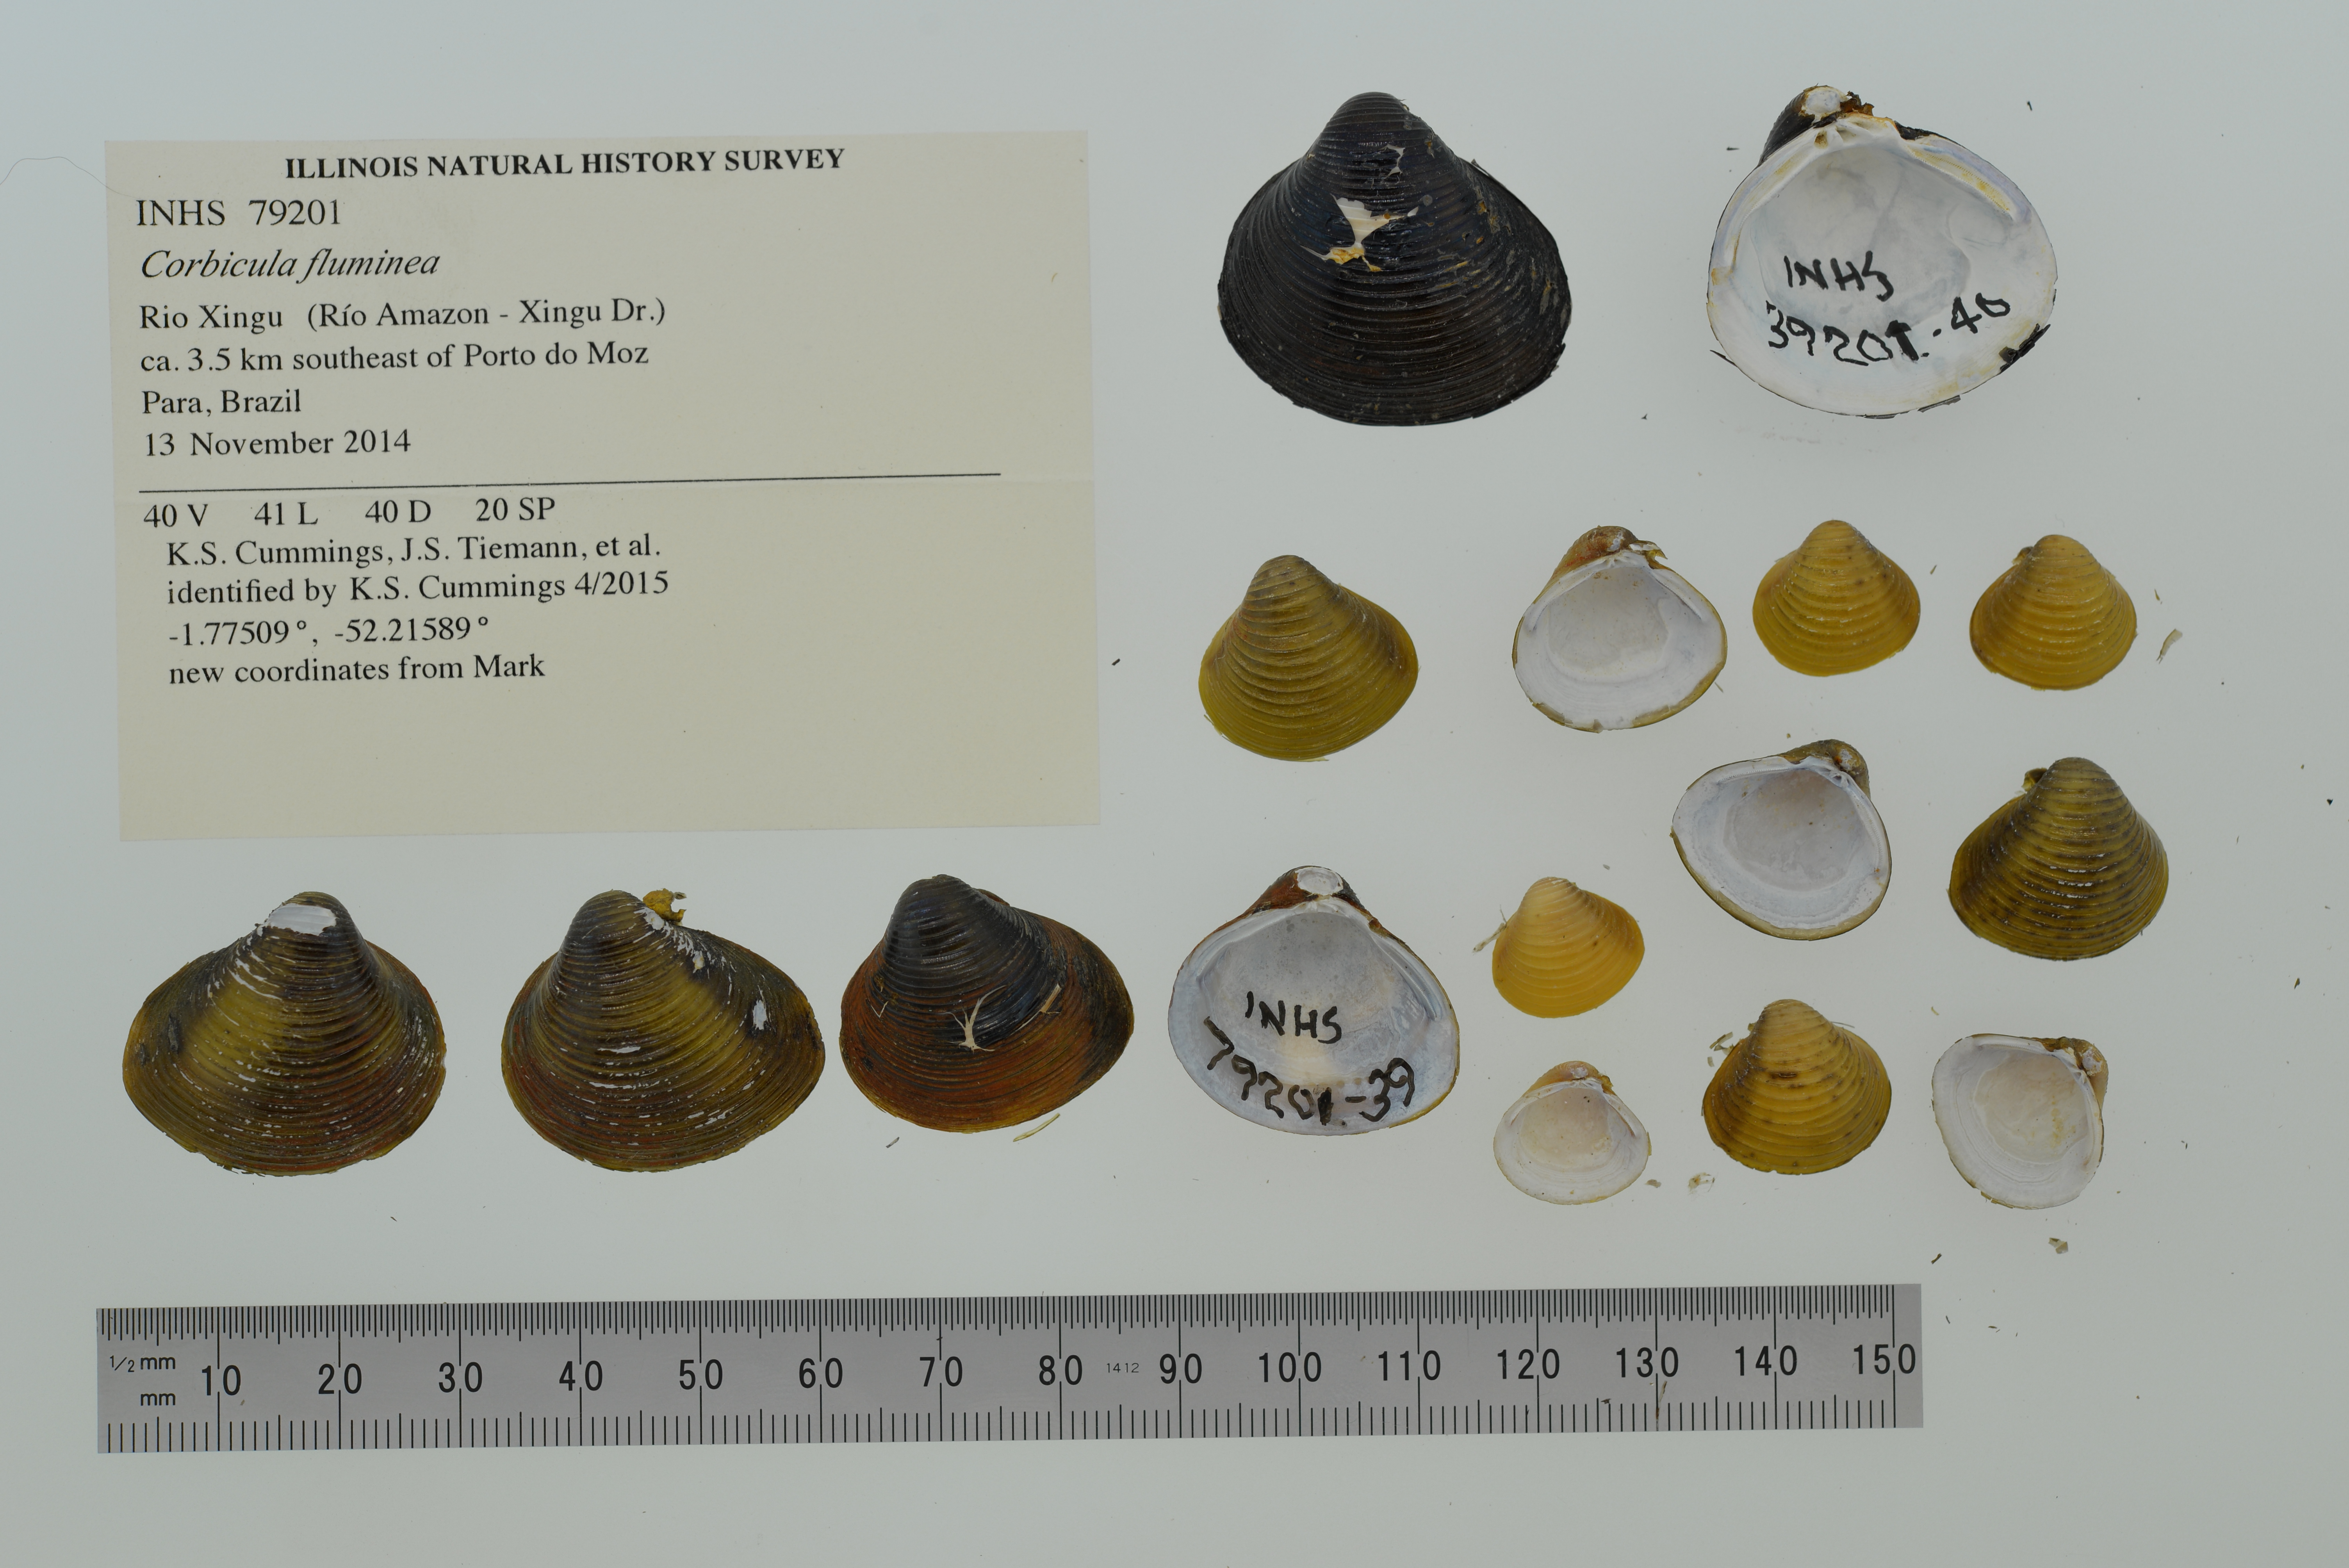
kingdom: Animalia
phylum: Mollusca
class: Bivalvia
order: Venerida
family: Cyrenidae
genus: Corbicula
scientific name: Corbicula fluminea
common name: Asian clam
